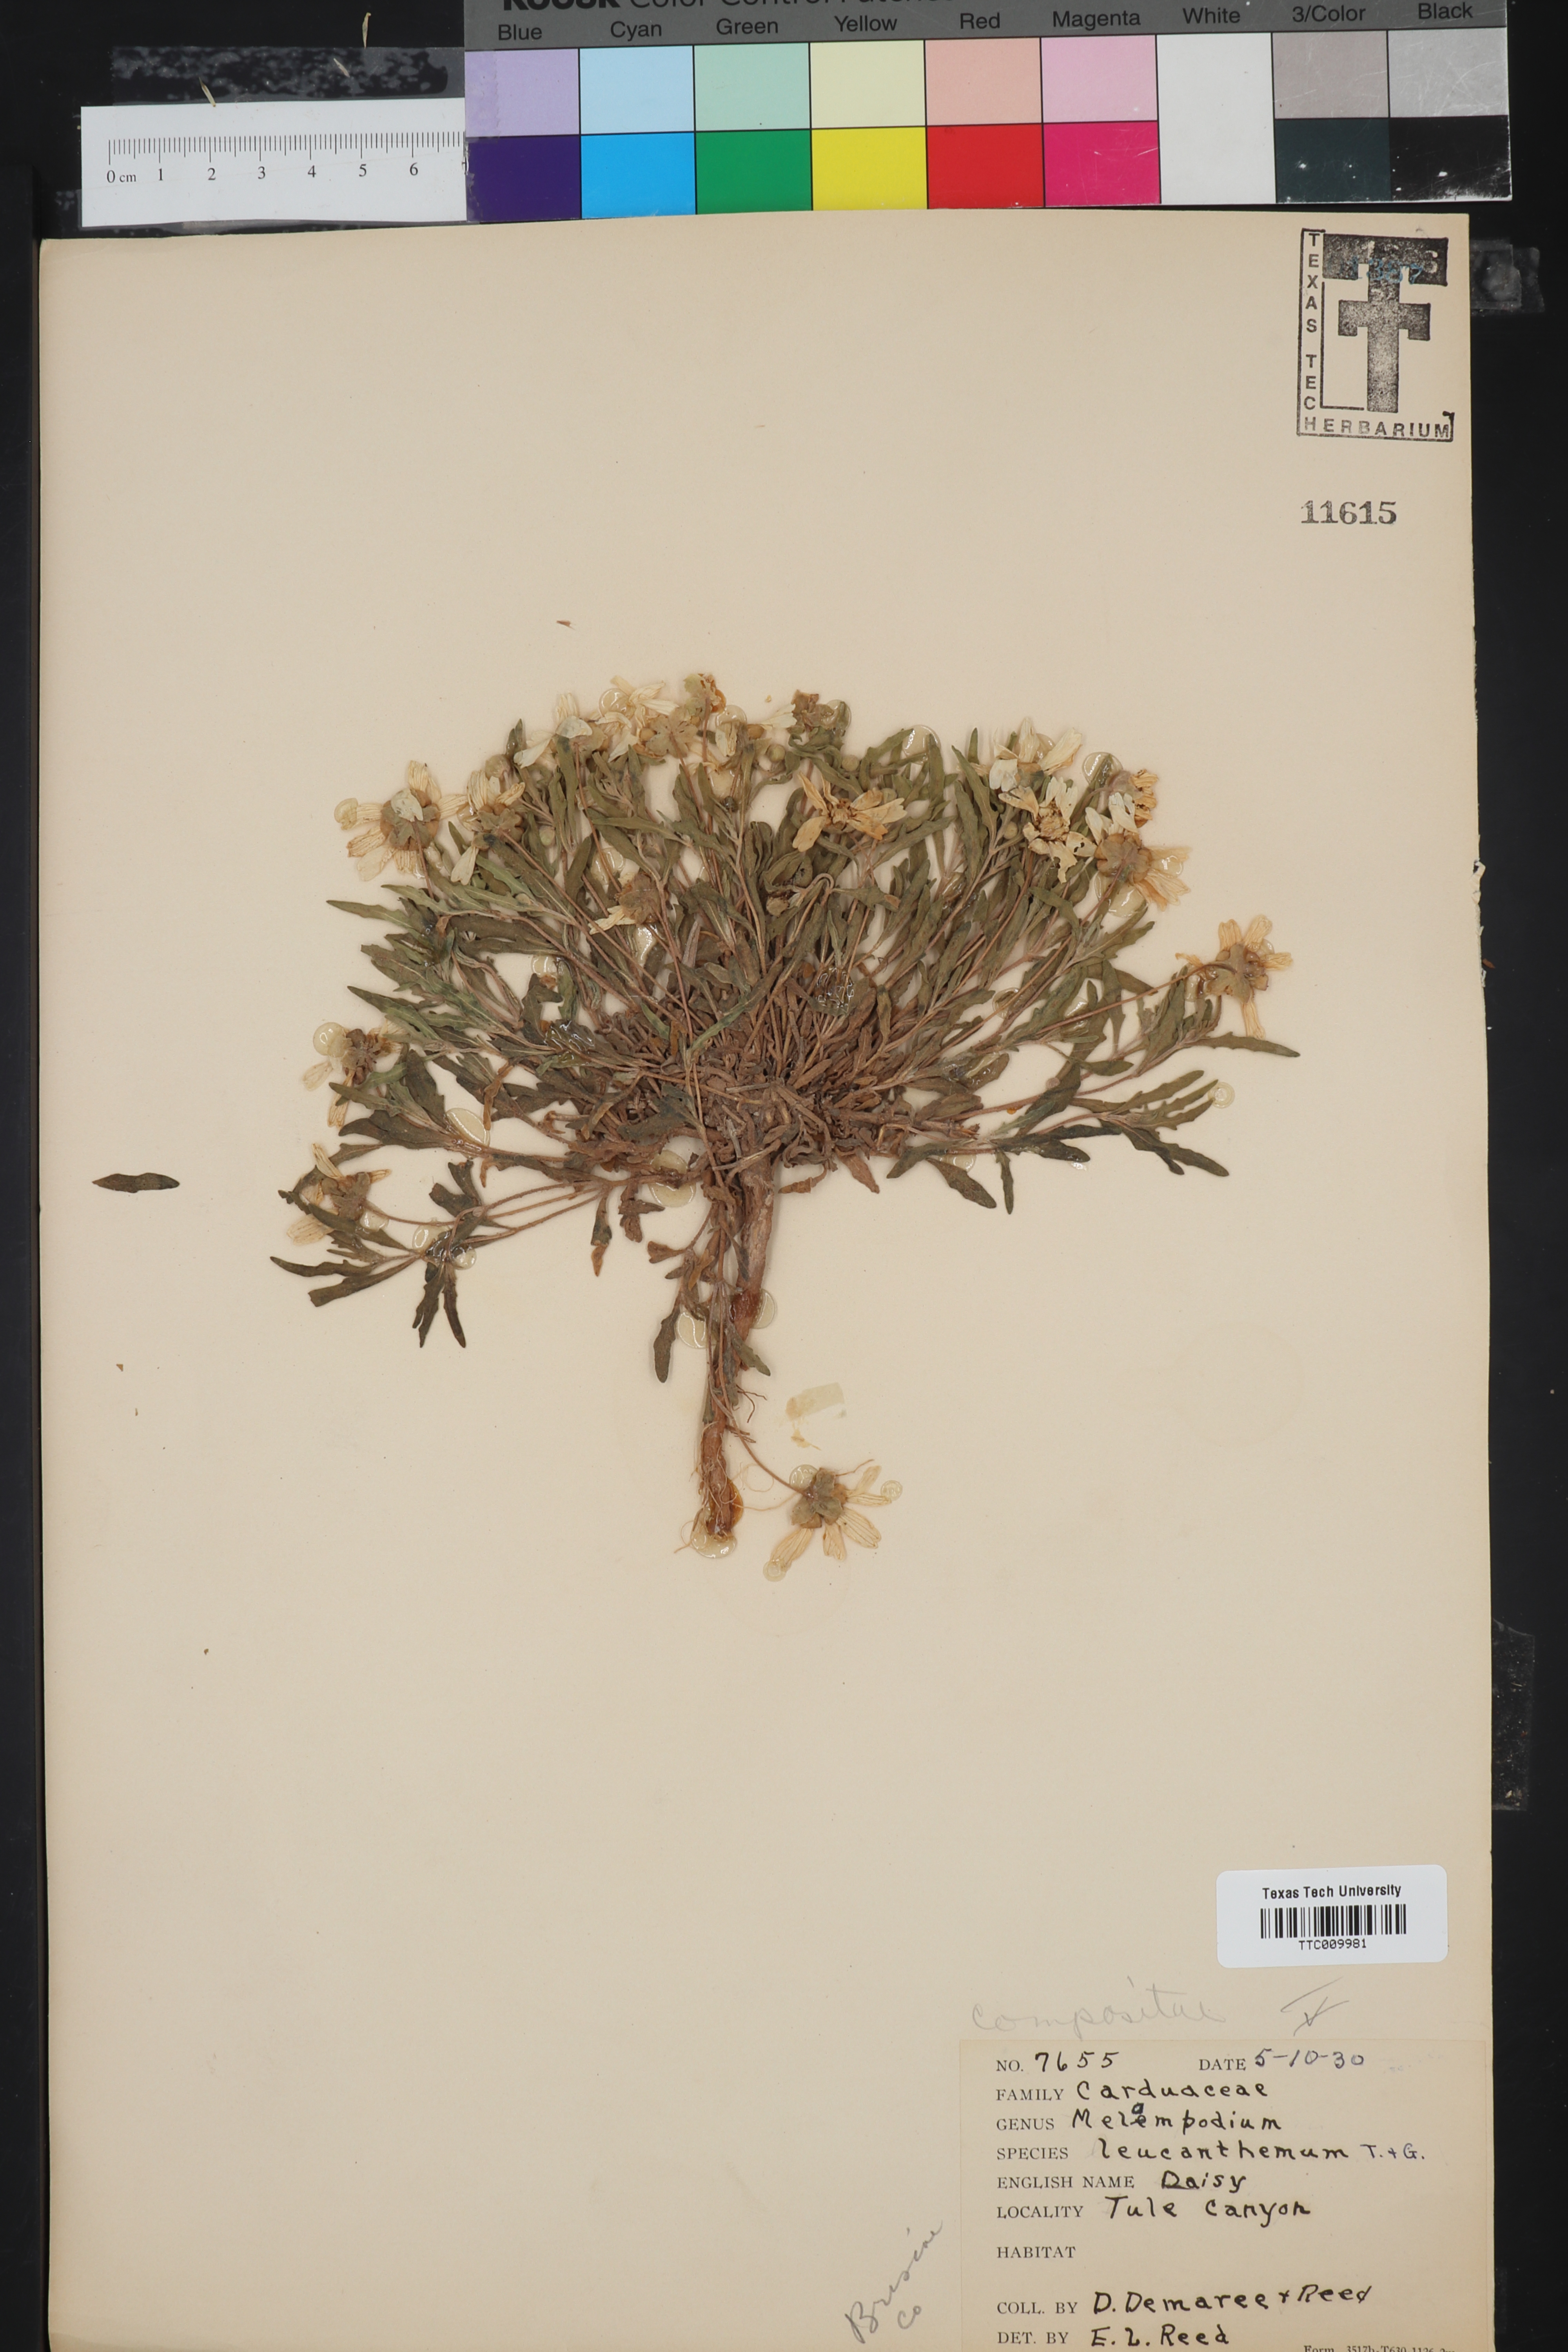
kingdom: Plantae
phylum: Tracheophyta
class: Magnoliopsida
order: Asterales
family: Asteraceae
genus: Melampodium
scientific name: Melampodium leucanthum
